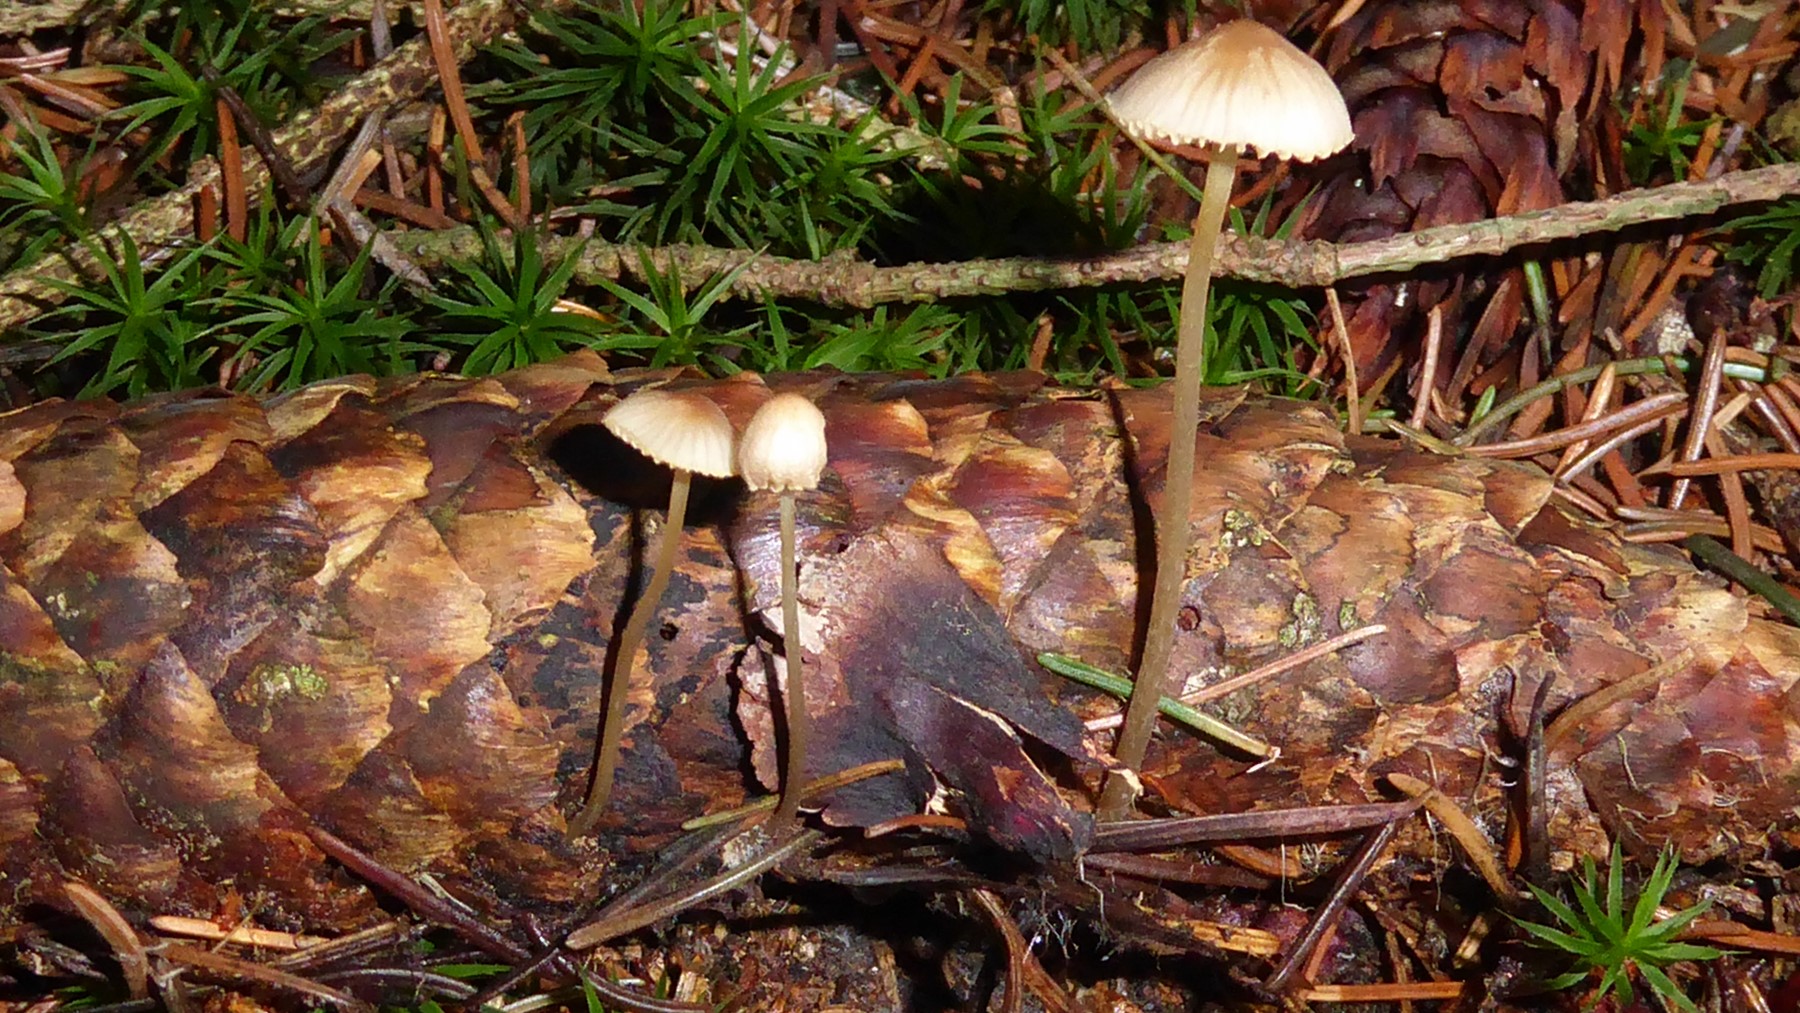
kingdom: Fungi
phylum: Basidiomycota
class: Agaricomycetes
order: Agaricales
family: Mycenaceae
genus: Mycena
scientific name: Mycena
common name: huesvamp
